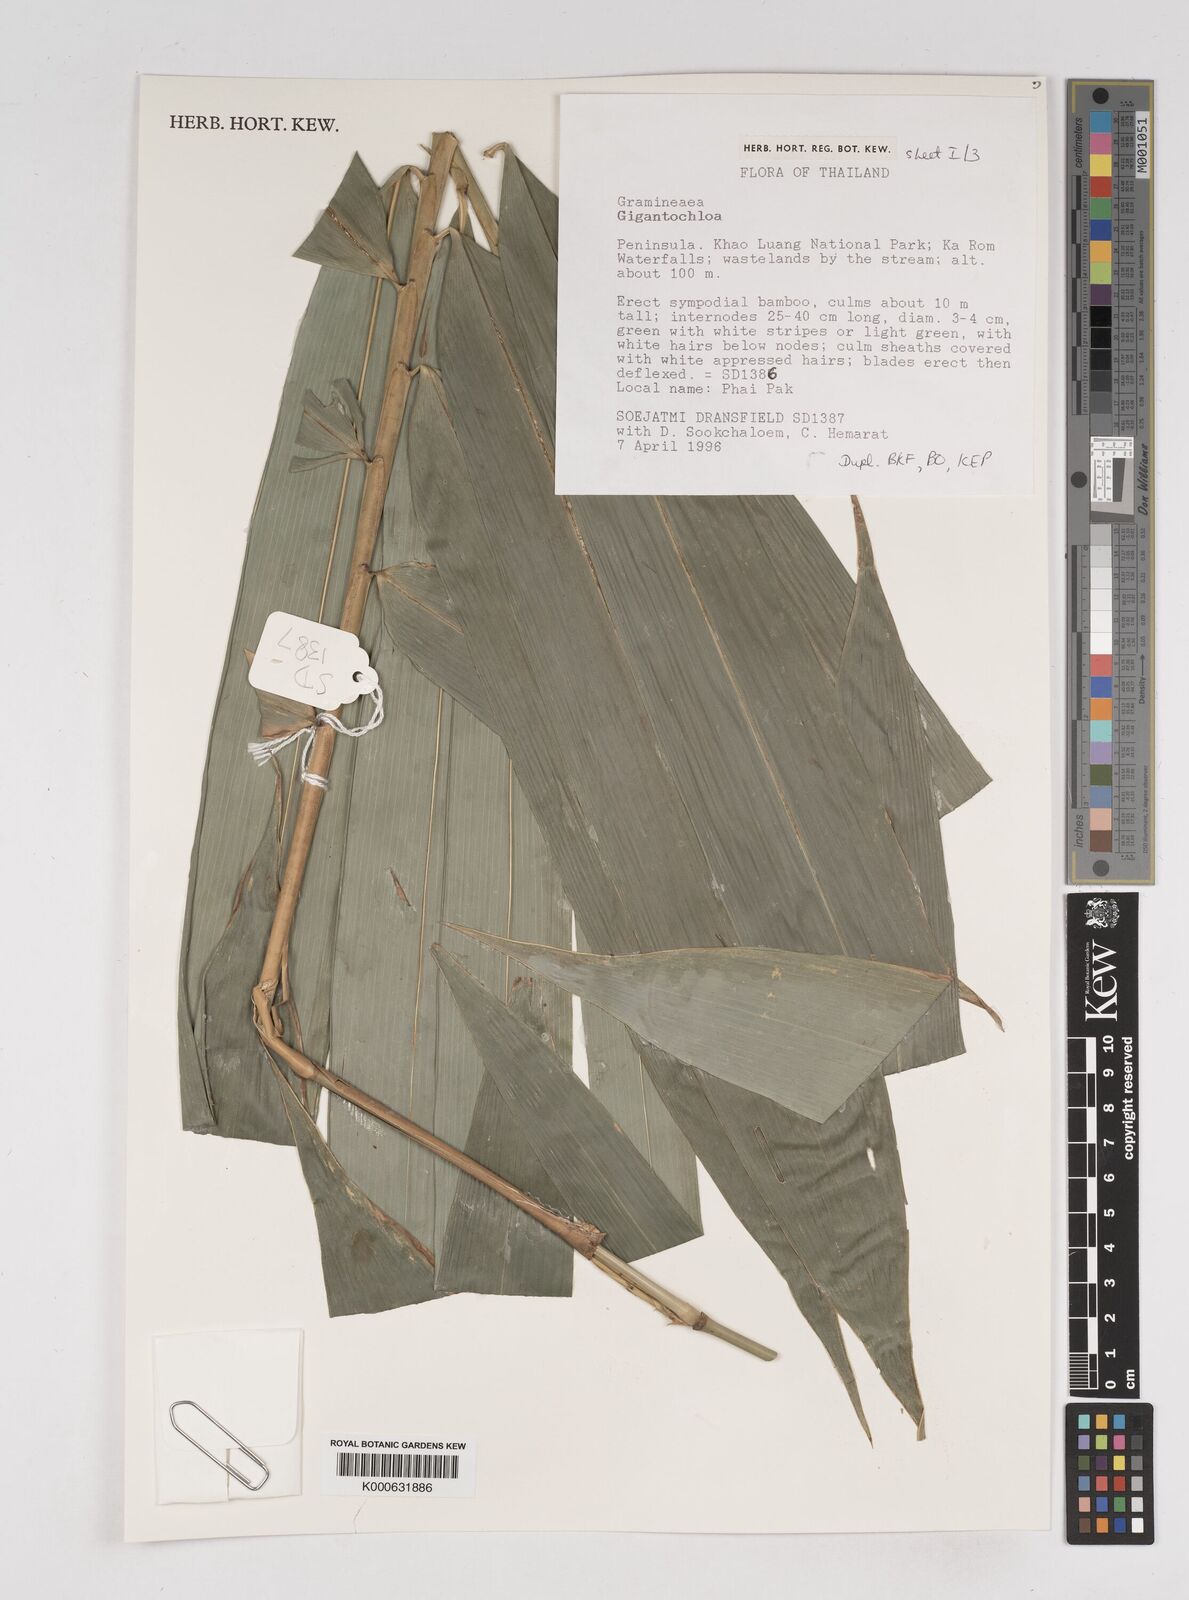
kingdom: Plantae
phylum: Tracheophyta
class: Liliopsida
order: Poales
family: Poaceae
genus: Gigantochloa
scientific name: Gigantochloa
